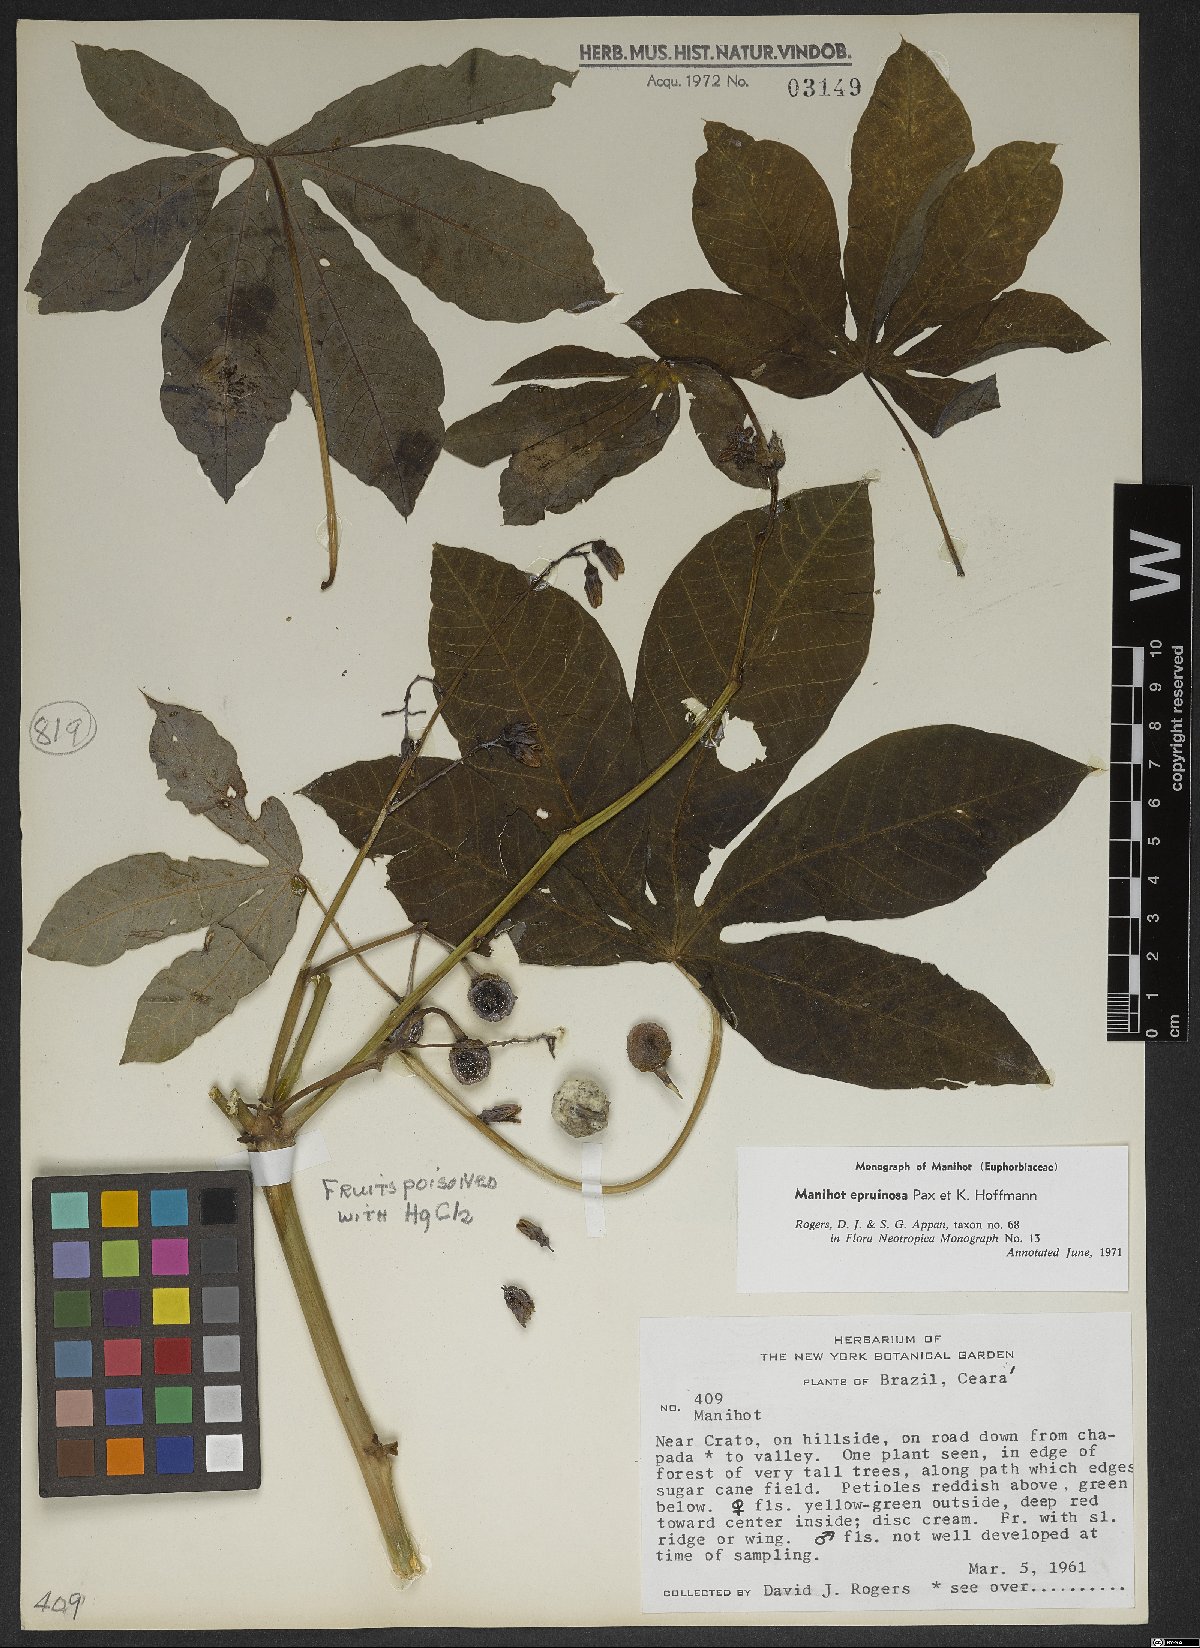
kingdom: Plantae
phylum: Tracheophyta
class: Magnoliopsida
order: Malpighiales
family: Euphorbiaceae
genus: Manihot
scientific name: Manihot epruinosa
